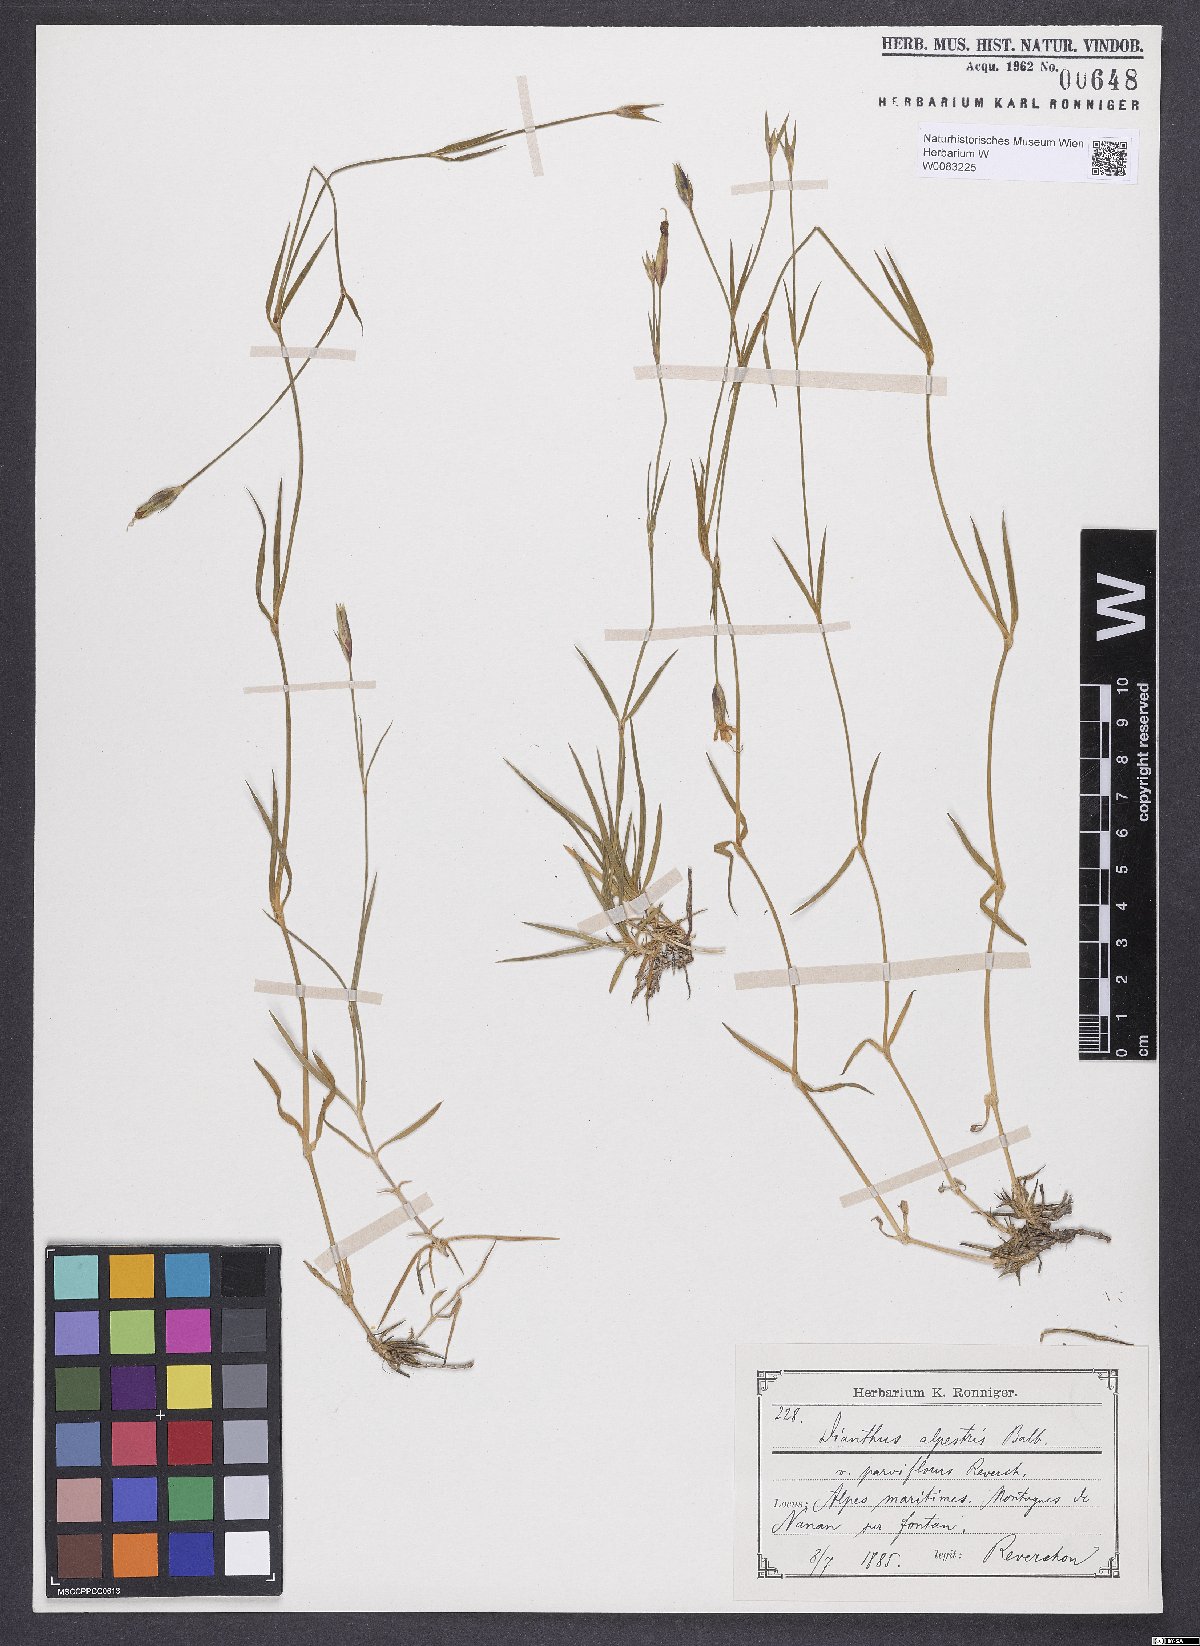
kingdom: Plantae
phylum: Tracheophyta
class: Magnoliopsida
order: Caryophyllales
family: Caryophyllaceae
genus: Dianthus
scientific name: Dianthus furcatus
